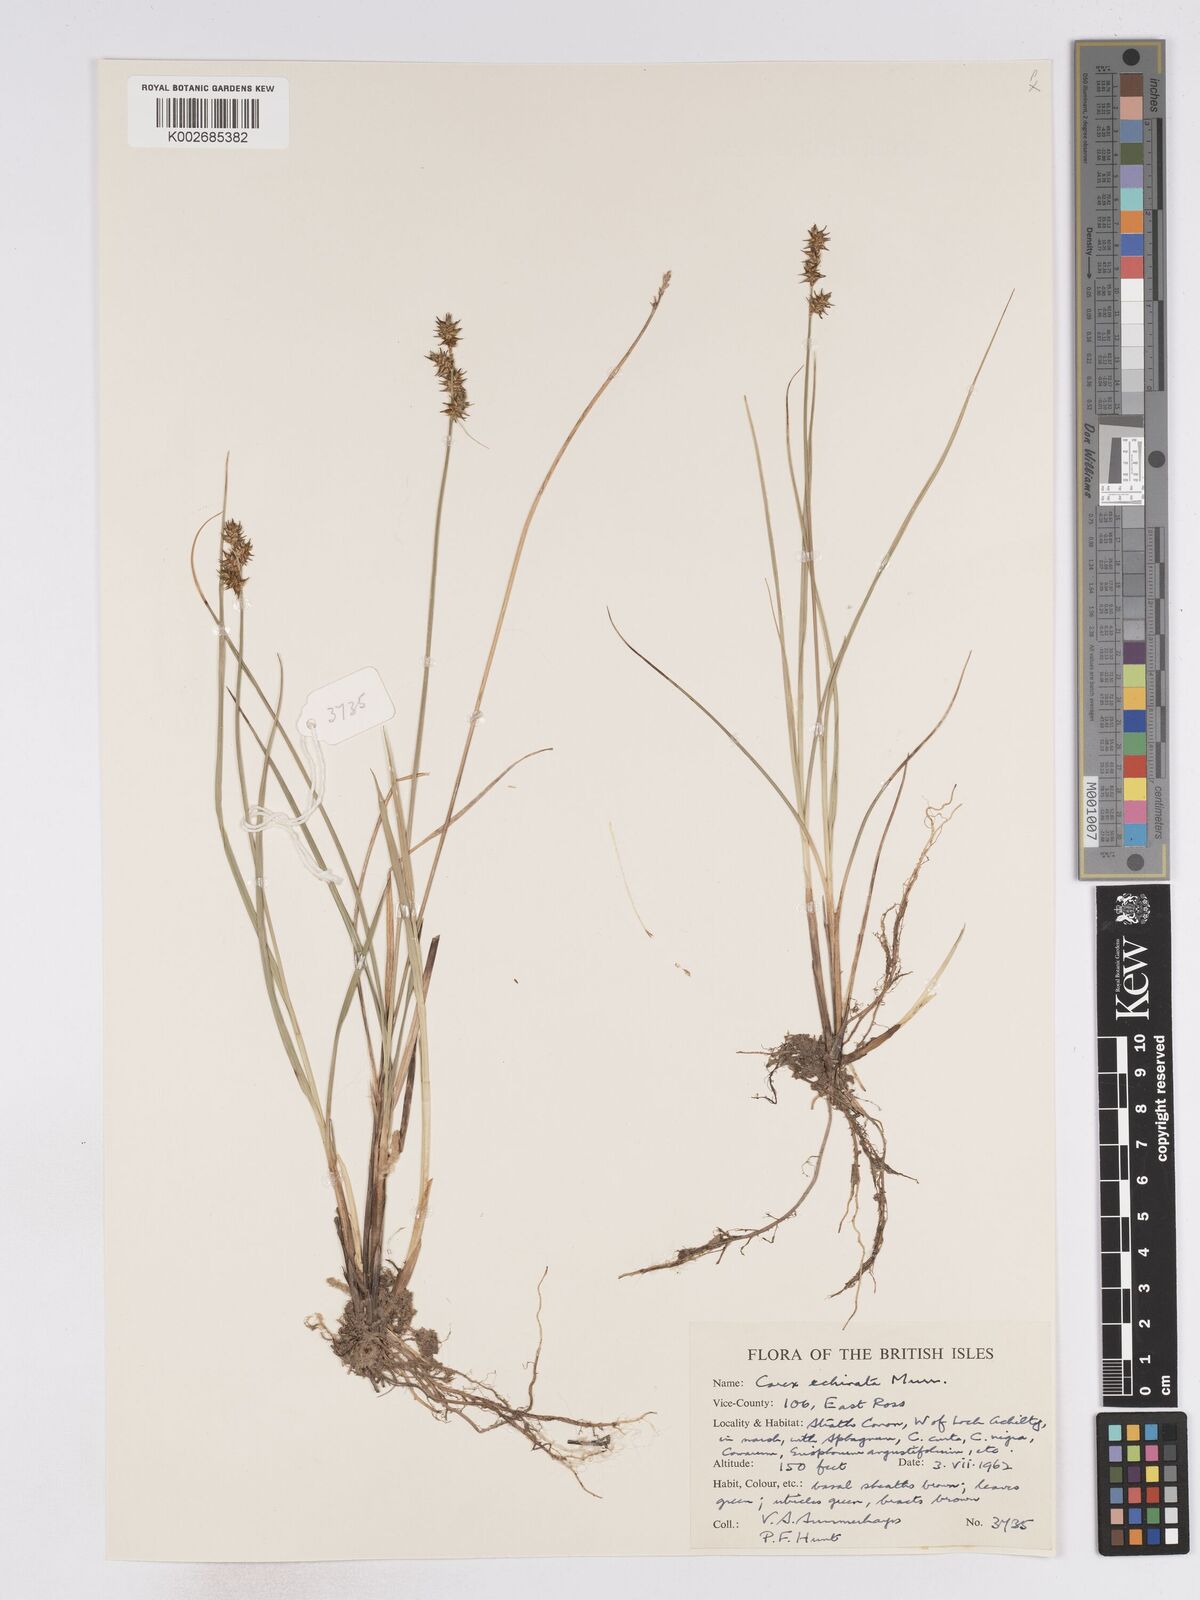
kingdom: Plantae
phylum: Tracheophyta
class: Liliopsida
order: Poales
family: Cyperaceae
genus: Carex
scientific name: Carex echinata
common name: Star sedge
